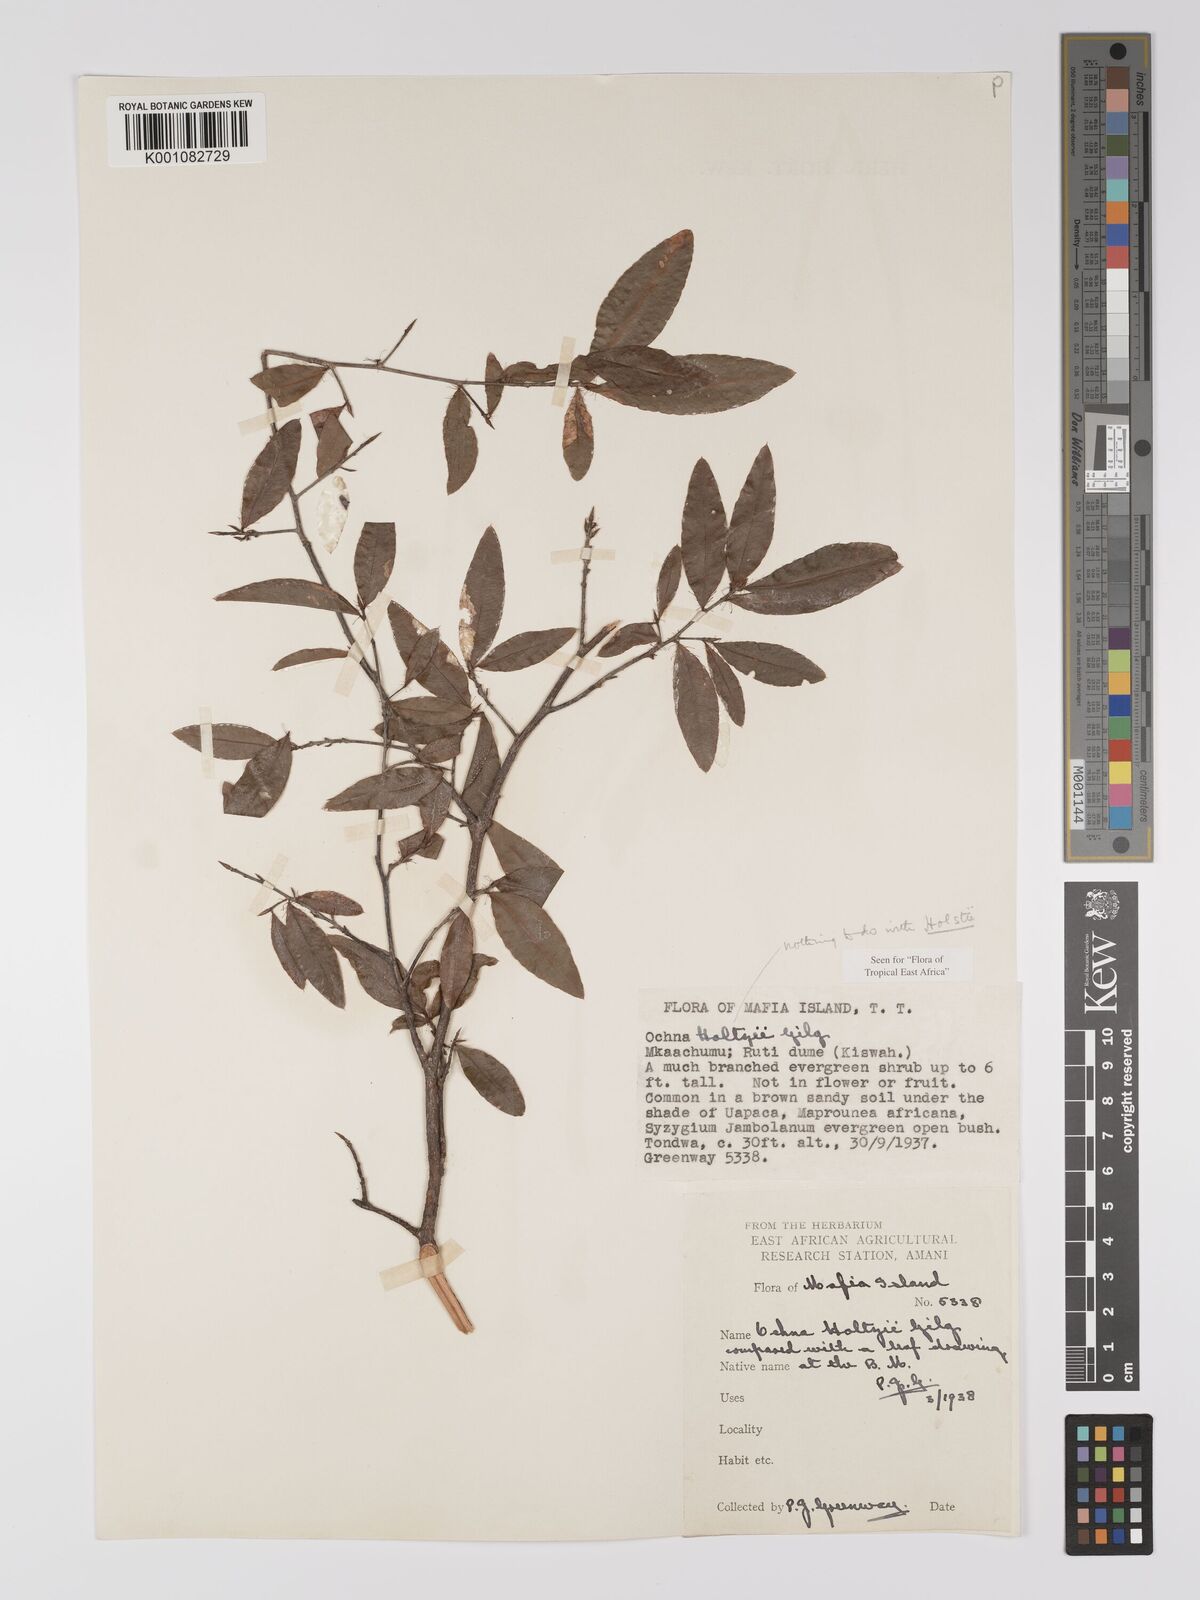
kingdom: Plantae
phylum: Tracheophyta
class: Magnoliopsida
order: Malpighiales
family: Ochnaceae
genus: Ochna
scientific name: Ochna holtzii
